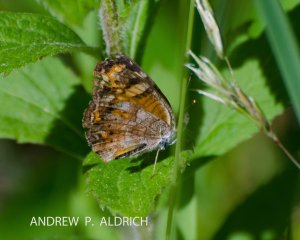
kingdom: Animalia
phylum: Arthropoda
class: Insecta
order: Lepidoptera
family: Nymphalidae
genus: Phyciodes
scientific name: Phyciodes tharos
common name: Pearl Crescent
